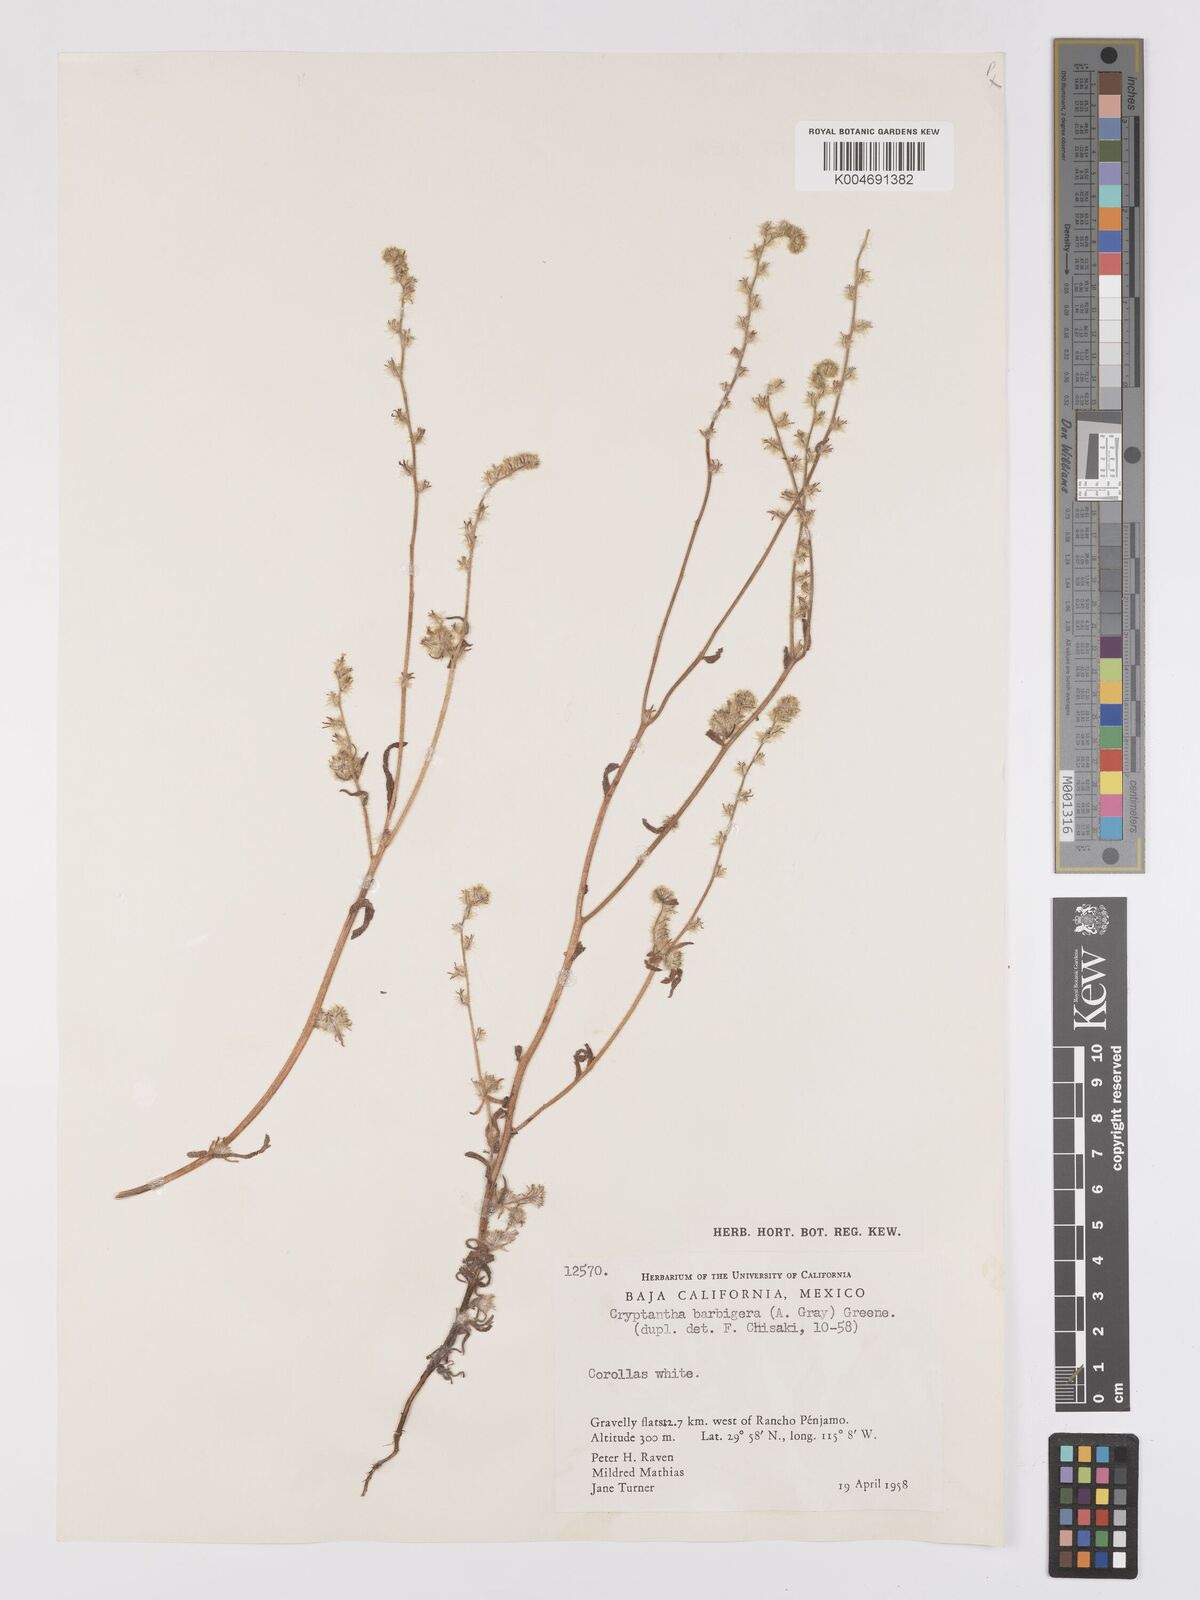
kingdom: Plantae
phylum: Tracheophyta
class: Magnoliopsida
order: Boraginales
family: Boraginaceae
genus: Cryptantha
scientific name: Cryptantha barbigera
